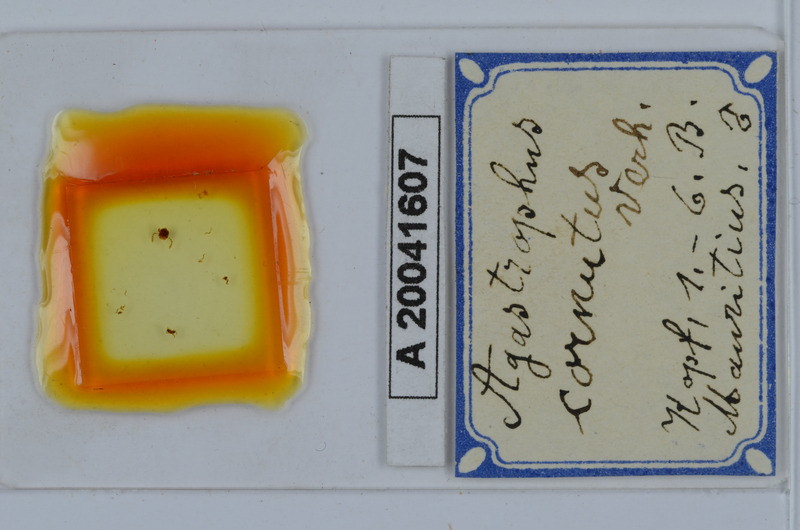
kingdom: Animalia
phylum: Arthropoda
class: Diplopoda
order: Spirostreptida
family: Cambalopsidae
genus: Hypocambala
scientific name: Hypocambala cornuta
